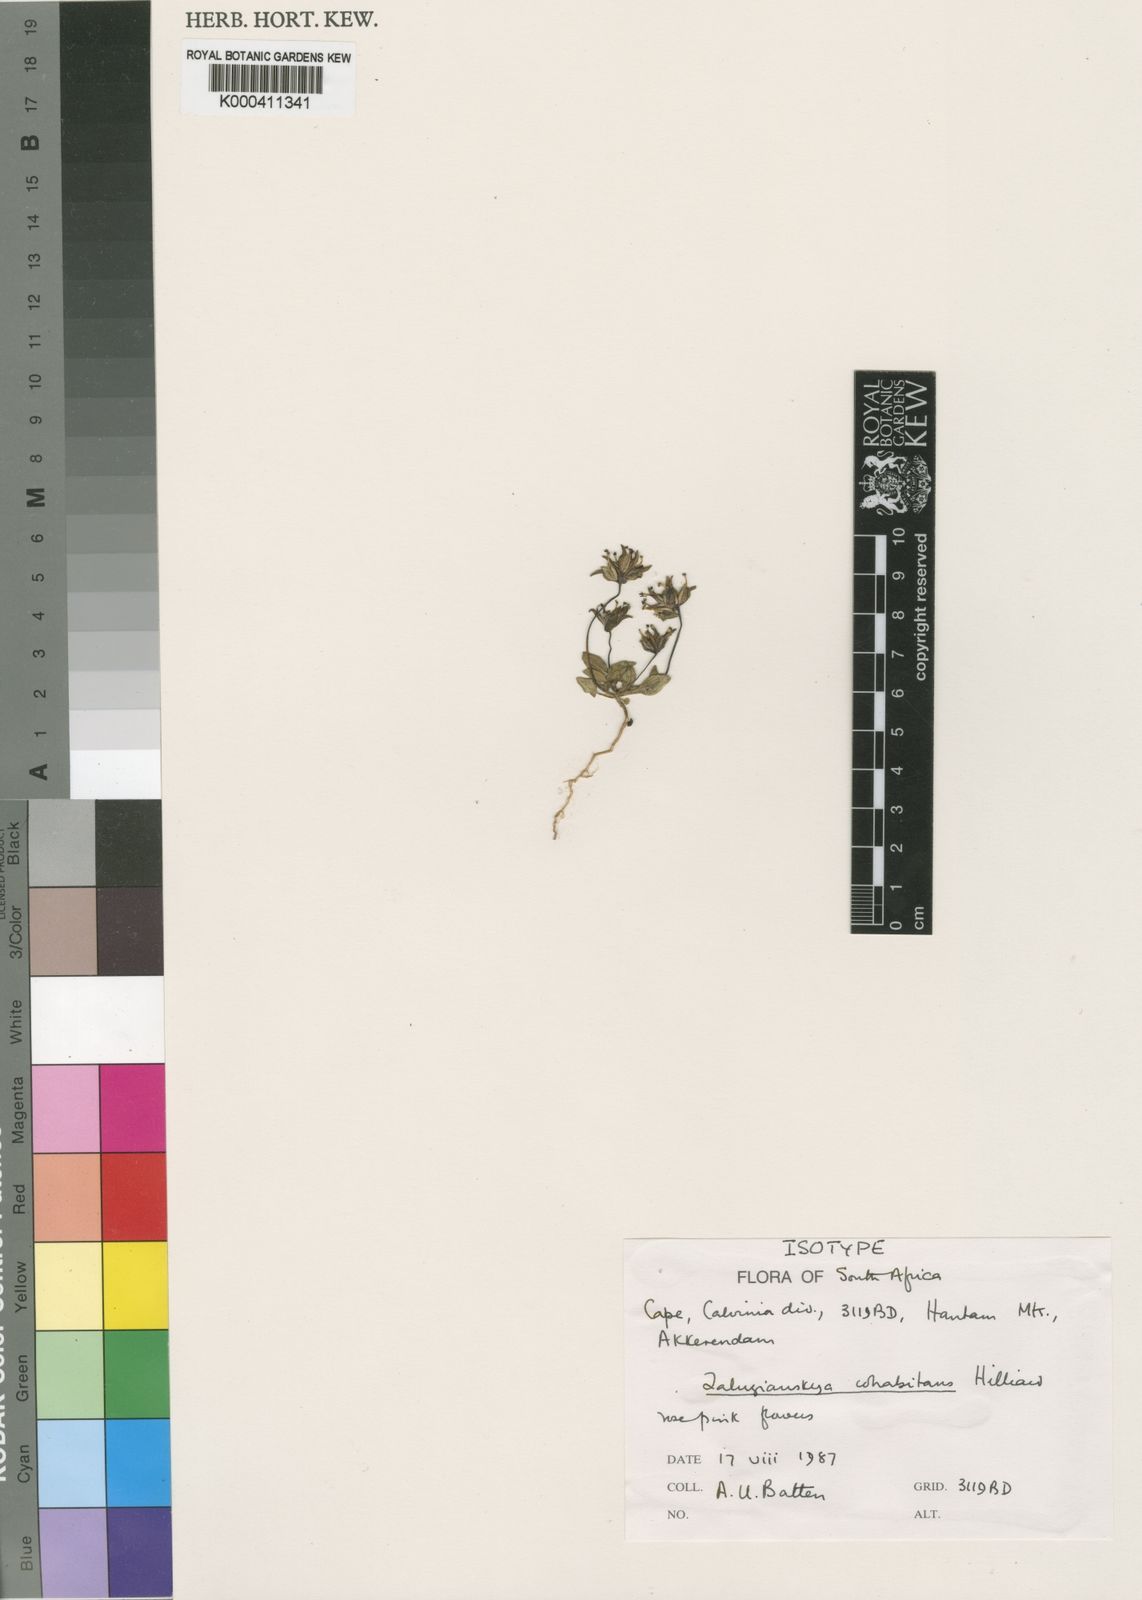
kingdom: Plantae
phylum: Tracheophyta
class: Magnoliopsida
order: Lamiales
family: Scrophulariaceae
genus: Zaluzianskya
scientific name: Zaluzianskya cohabitans
